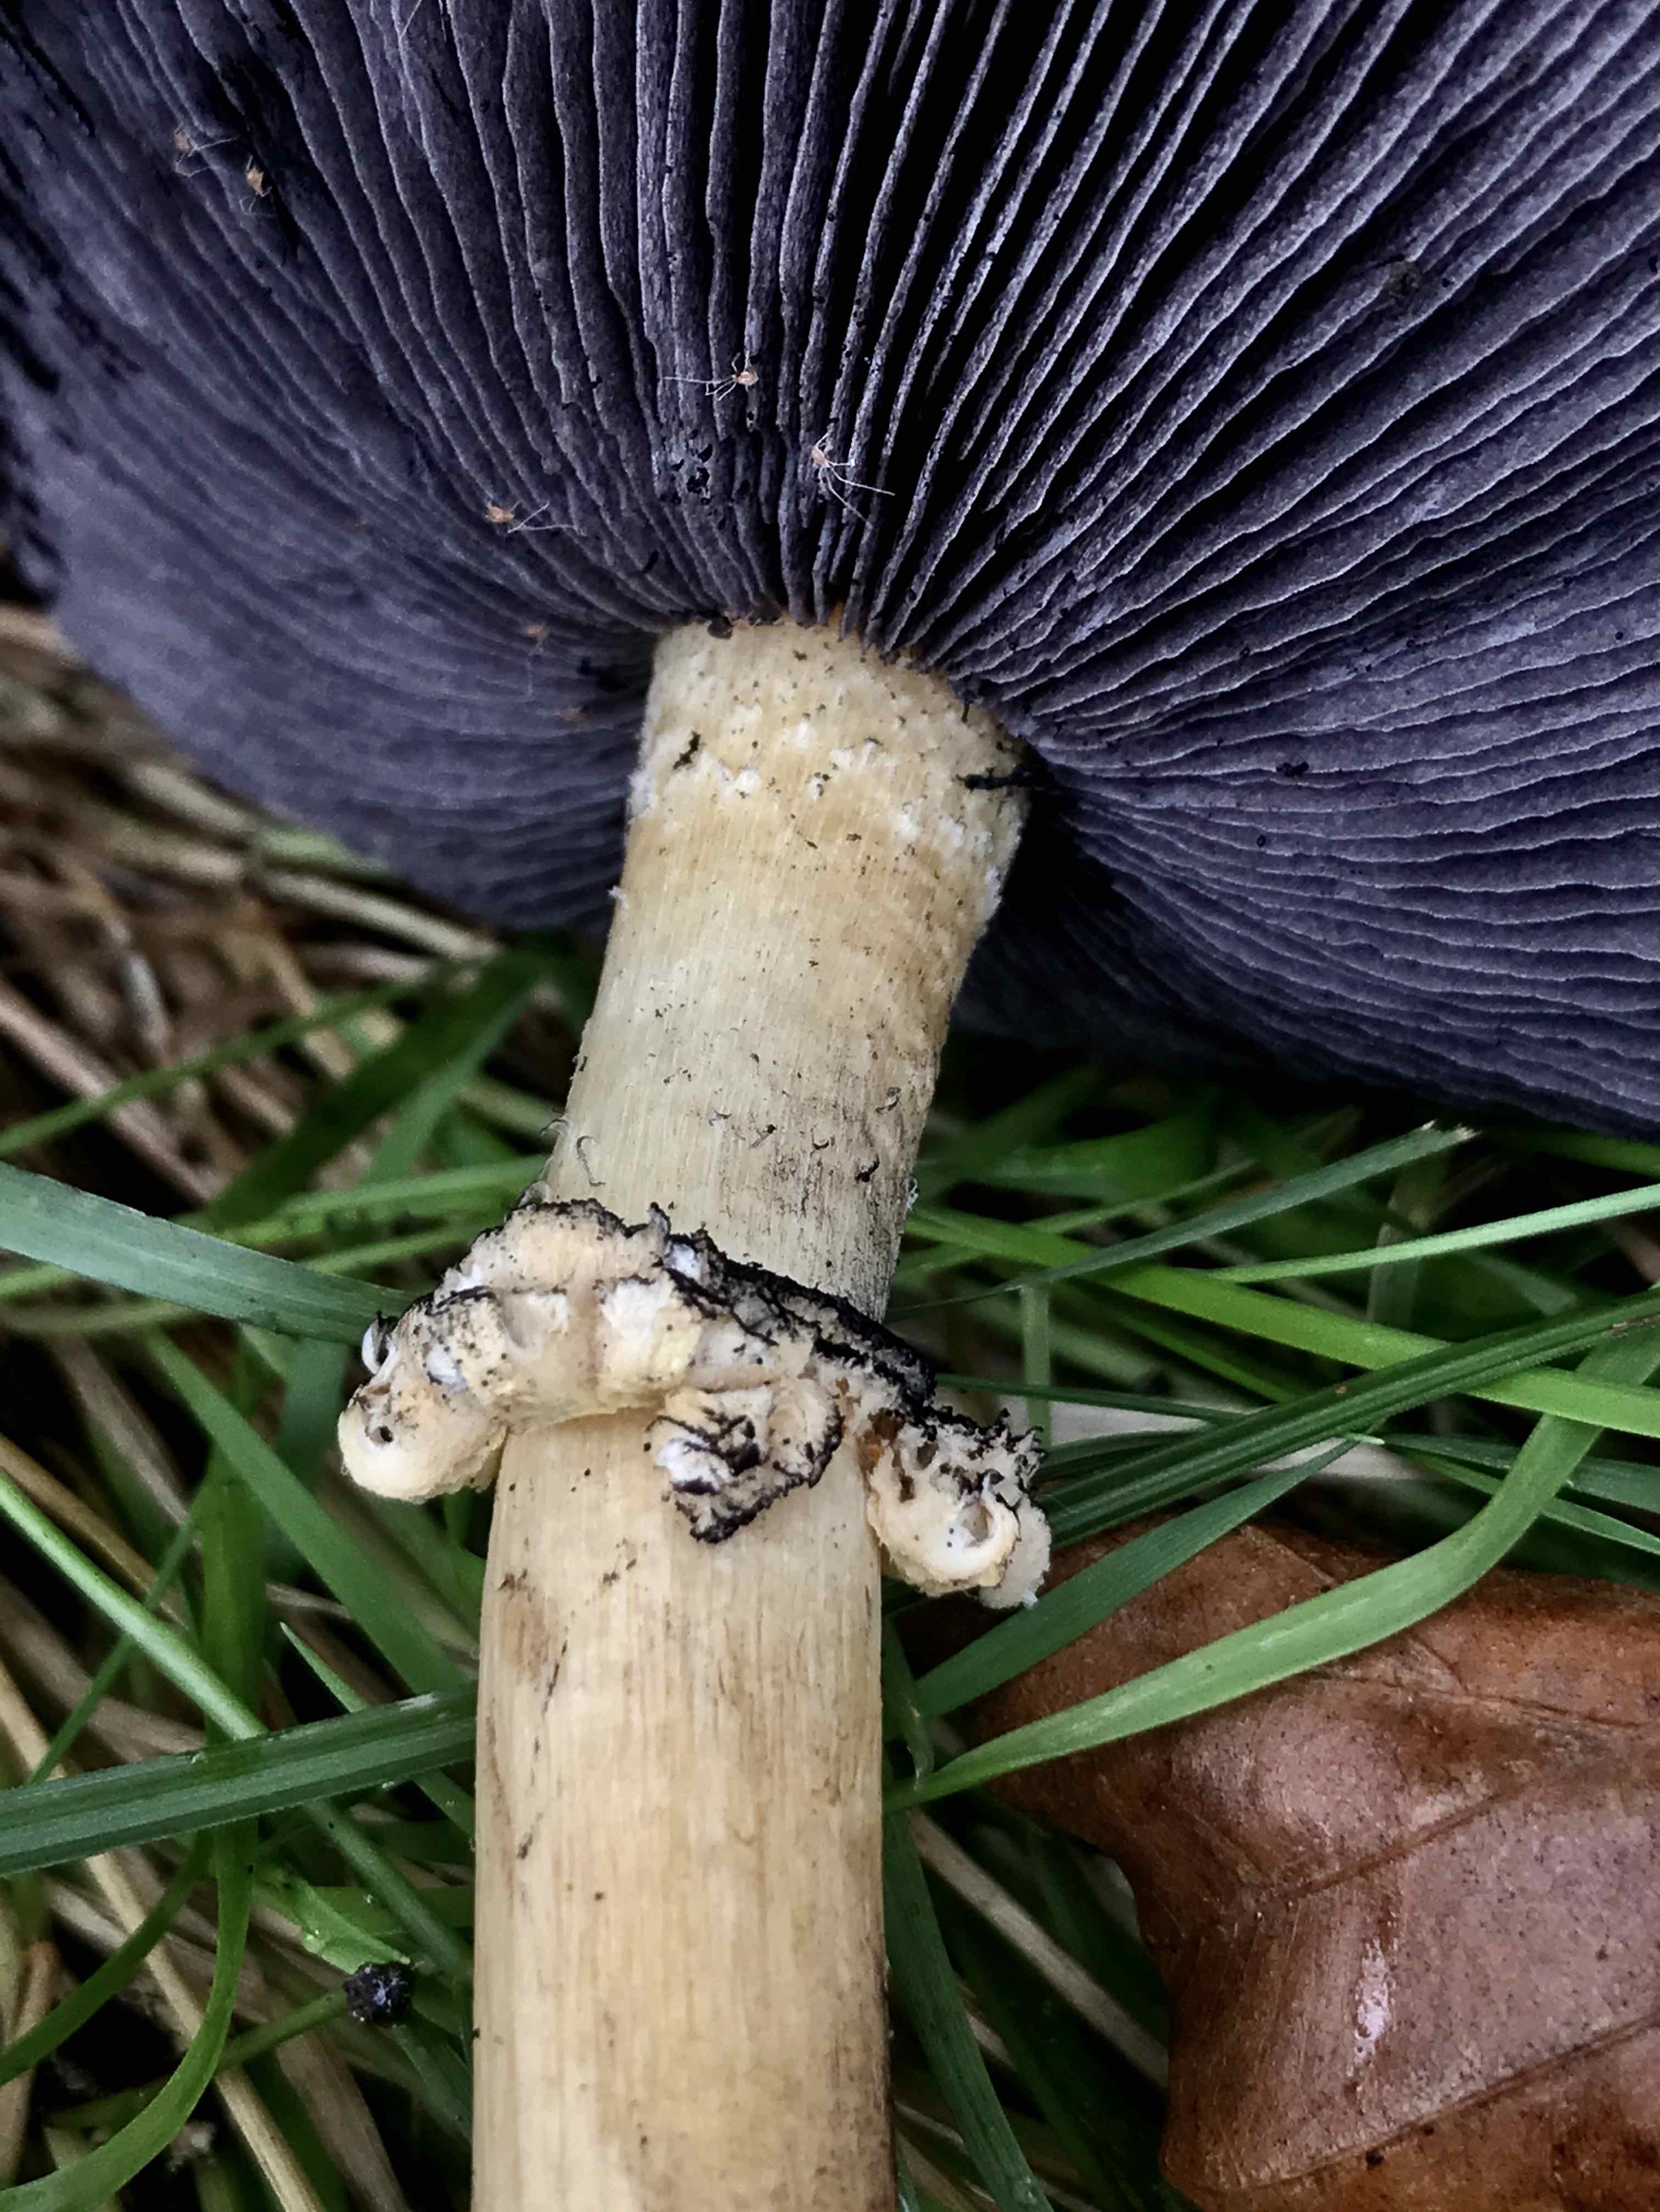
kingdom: Fungi
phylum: Basidiomycota
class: Agaricomycetes
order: Agaricales
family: Strophariaceae
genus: Stropharia
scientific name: Stropharia rugosoannulata
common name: rødbrun bredblad
